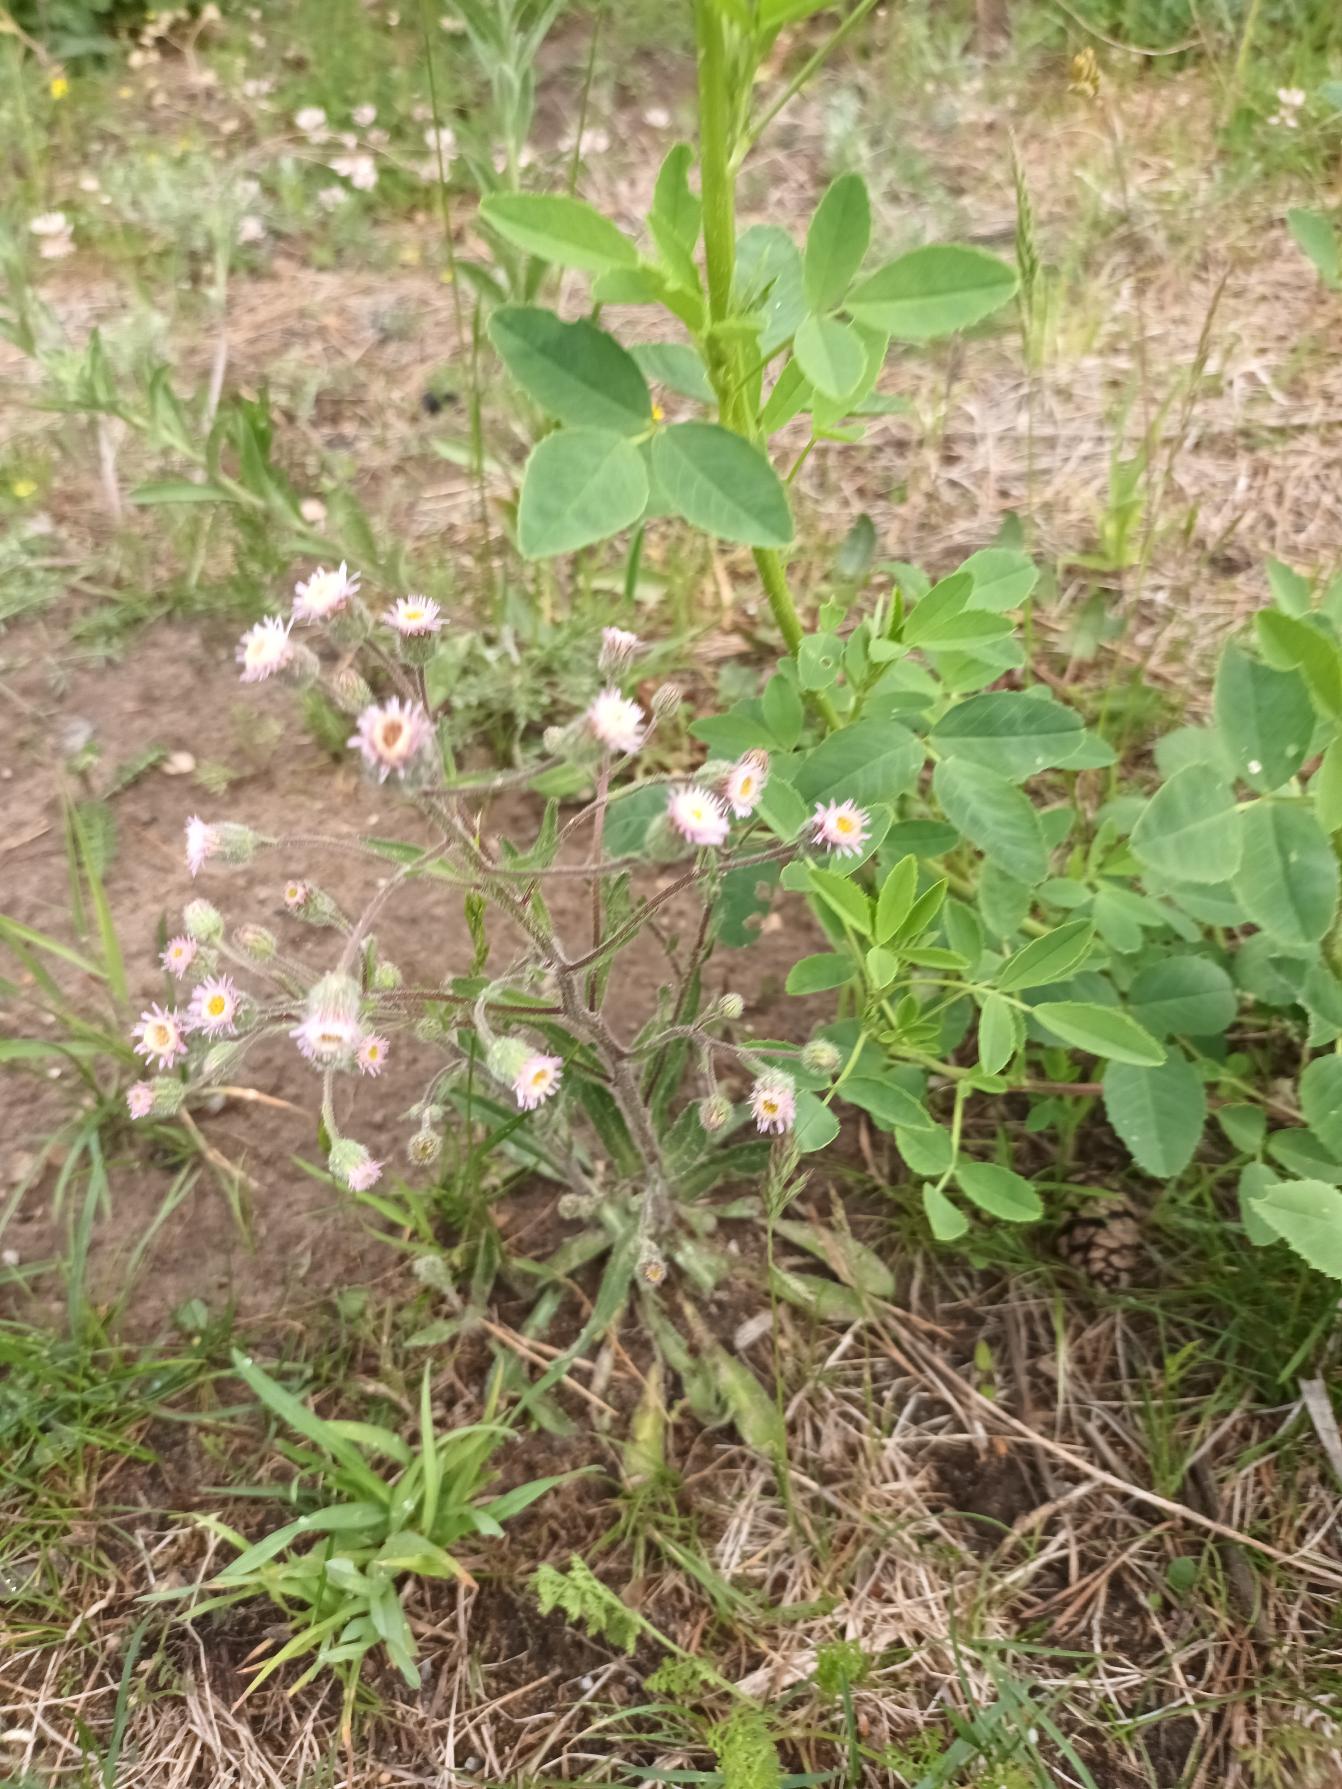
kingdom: Plantae
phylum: Tracheophyta
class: Magnoliopsida
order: Asterales
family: Asteraceae
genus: Erigeron
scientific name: Erigeron acris
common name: Bitter bakkestjerne
